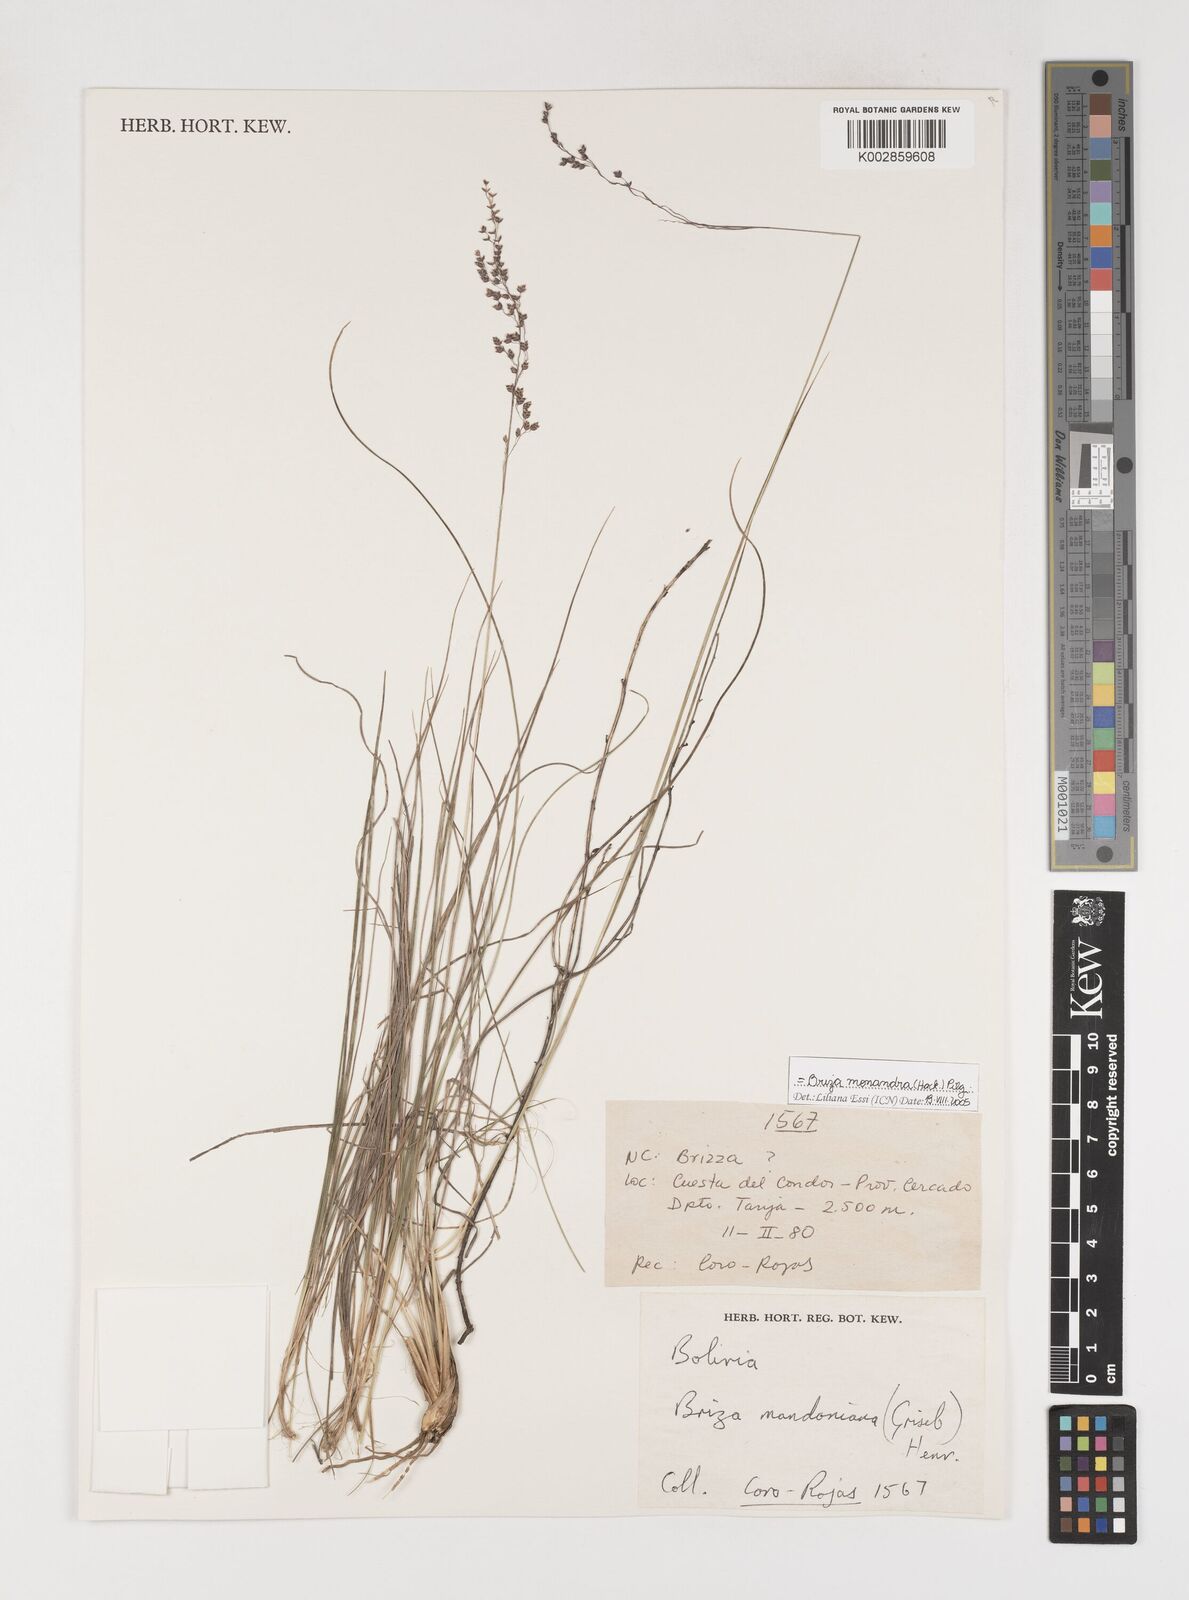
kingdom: Plantae
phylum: Tracheophyta
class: Liliopsida
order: Poales
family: Poaceae
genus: Poidium
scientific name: Poidium monandrum
